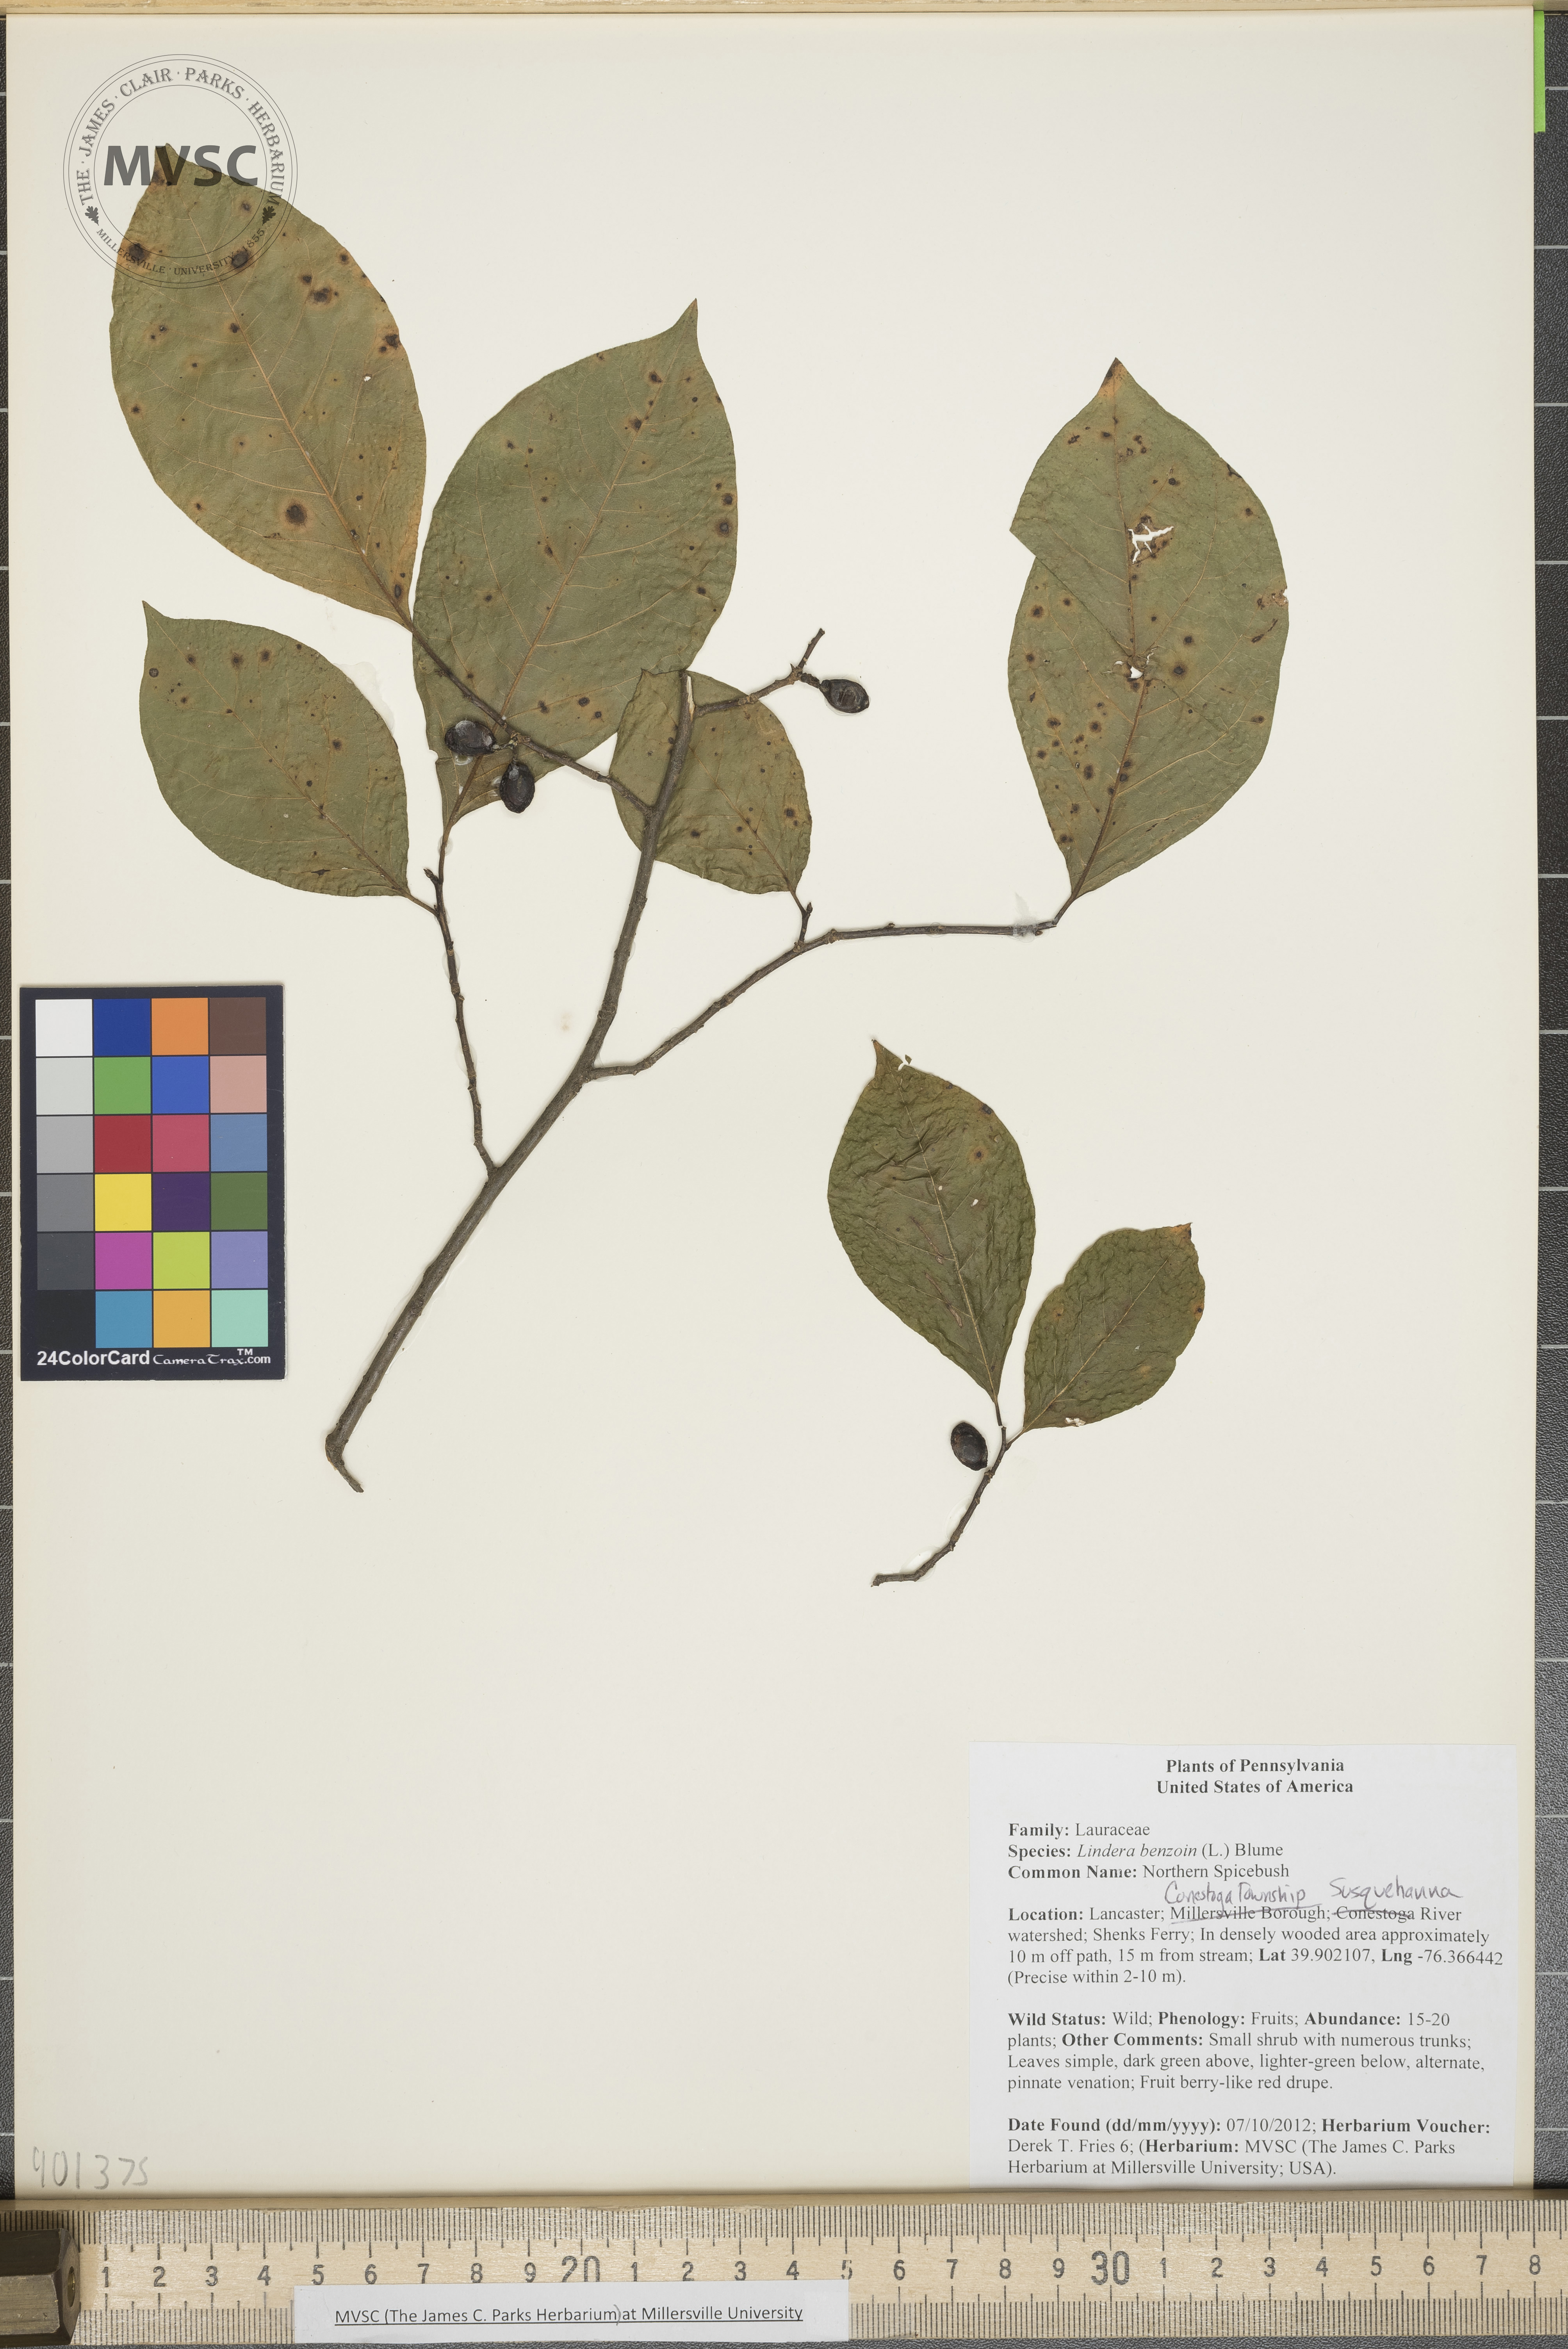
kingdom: Plantae
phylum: Tracheophyta
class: Magnoliopsida
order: Laurales
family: Lauraceae
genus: Lindera
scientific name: Lindera benzoin
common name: Northern Spicebush
